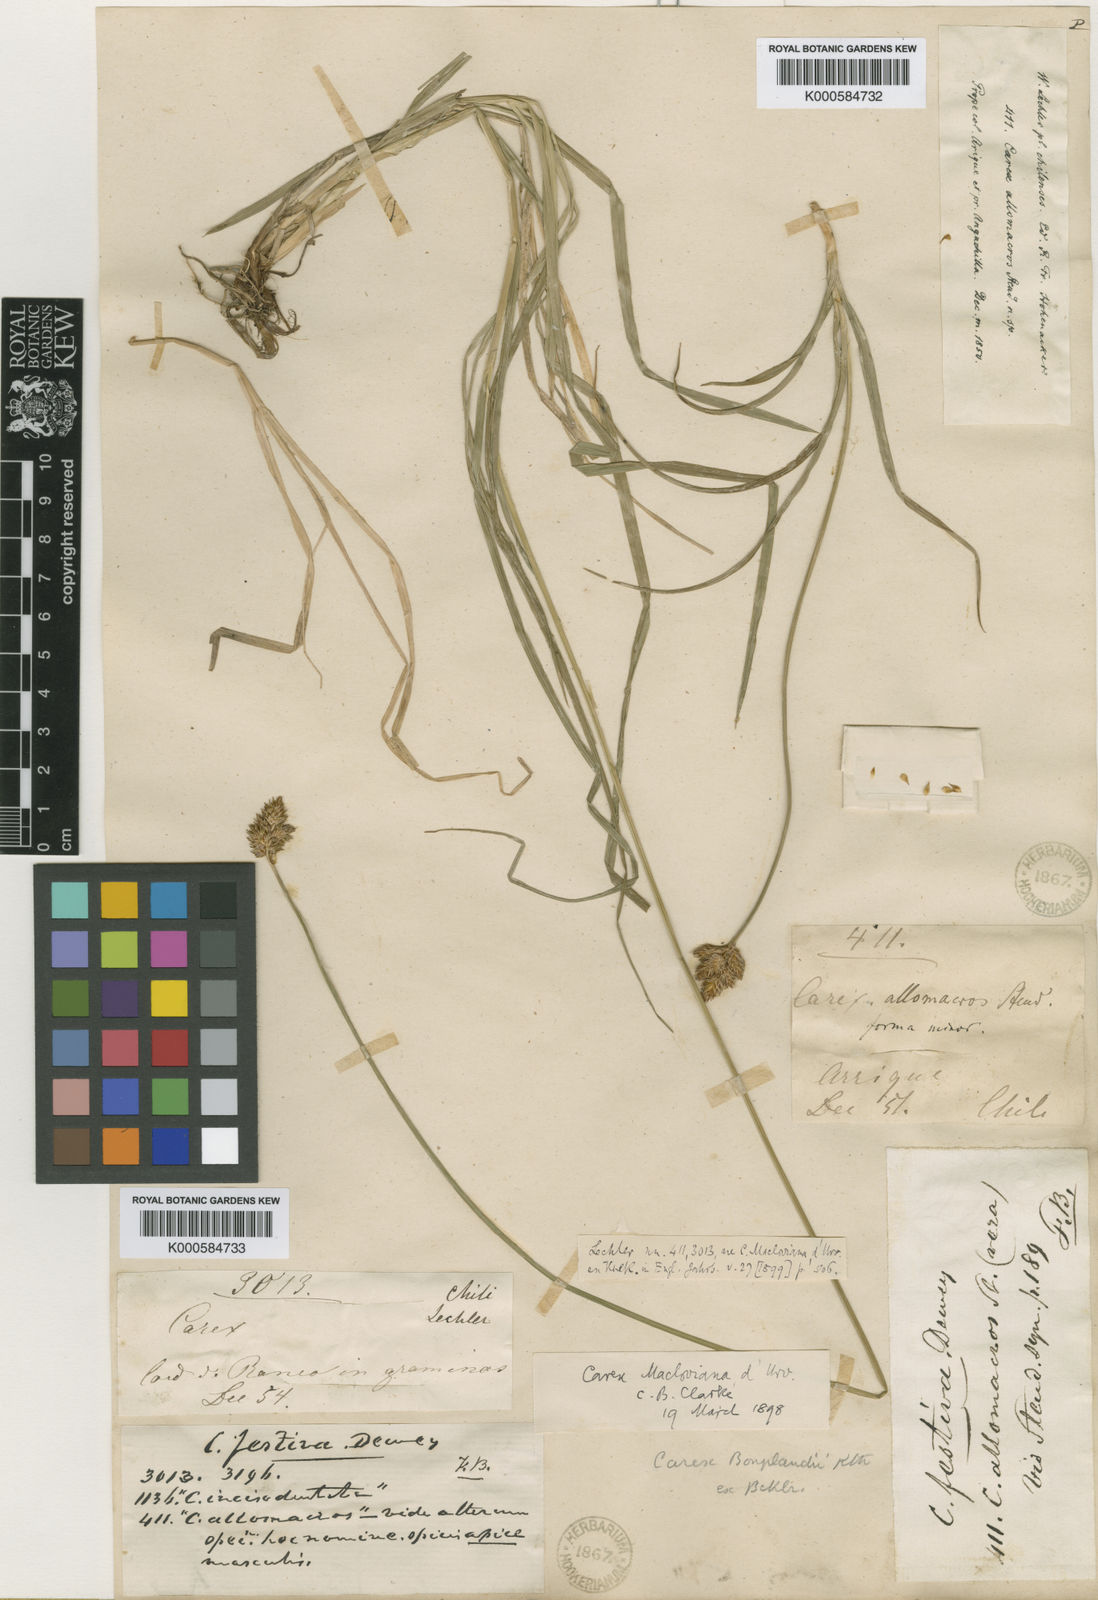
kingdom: Plantae
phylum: Tracheophyta
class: Liliopsida
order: Poales
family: Cyperaceae
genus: Carex
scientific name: Carex macloviana
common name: Falkland island sedge
